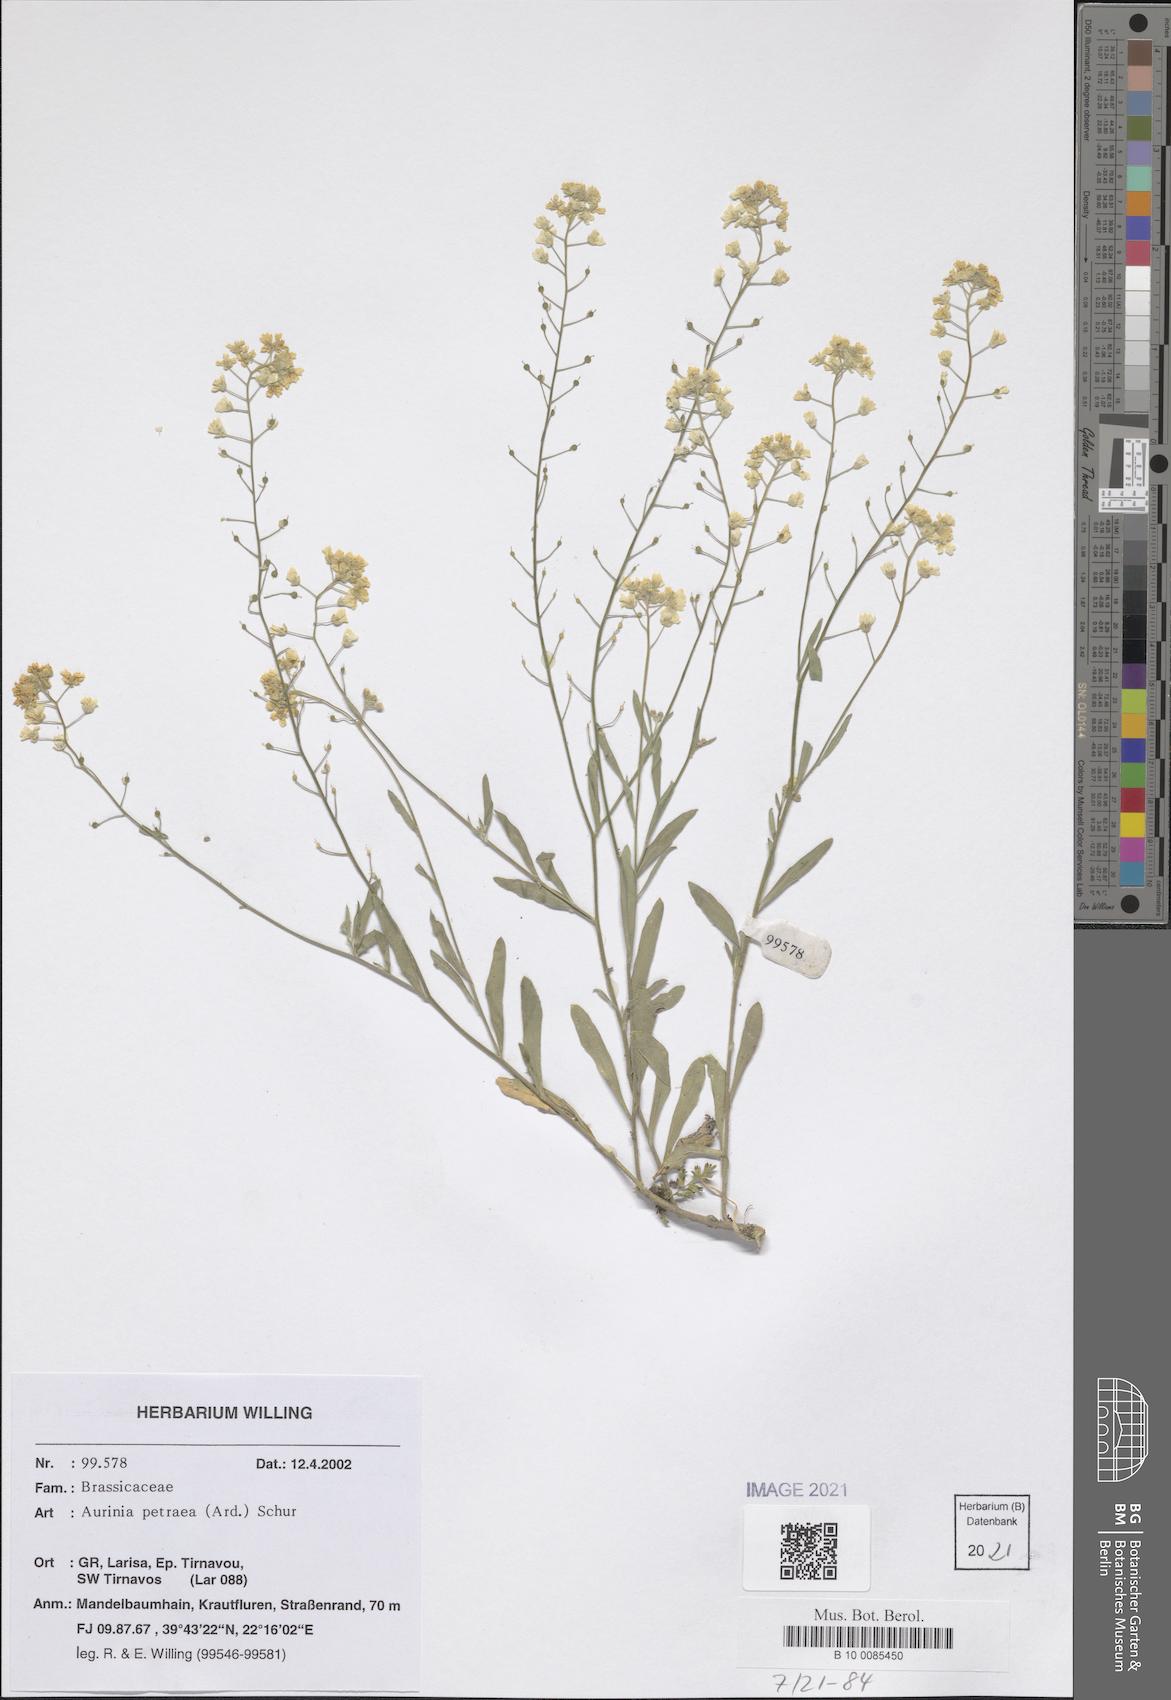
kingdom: Plantae
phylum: Tracheophyta
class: Magnoliopsida
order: Brassicales
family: Brassicaceae
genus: Aurinia
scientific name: Aurinia petraea
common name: Goldentuft
